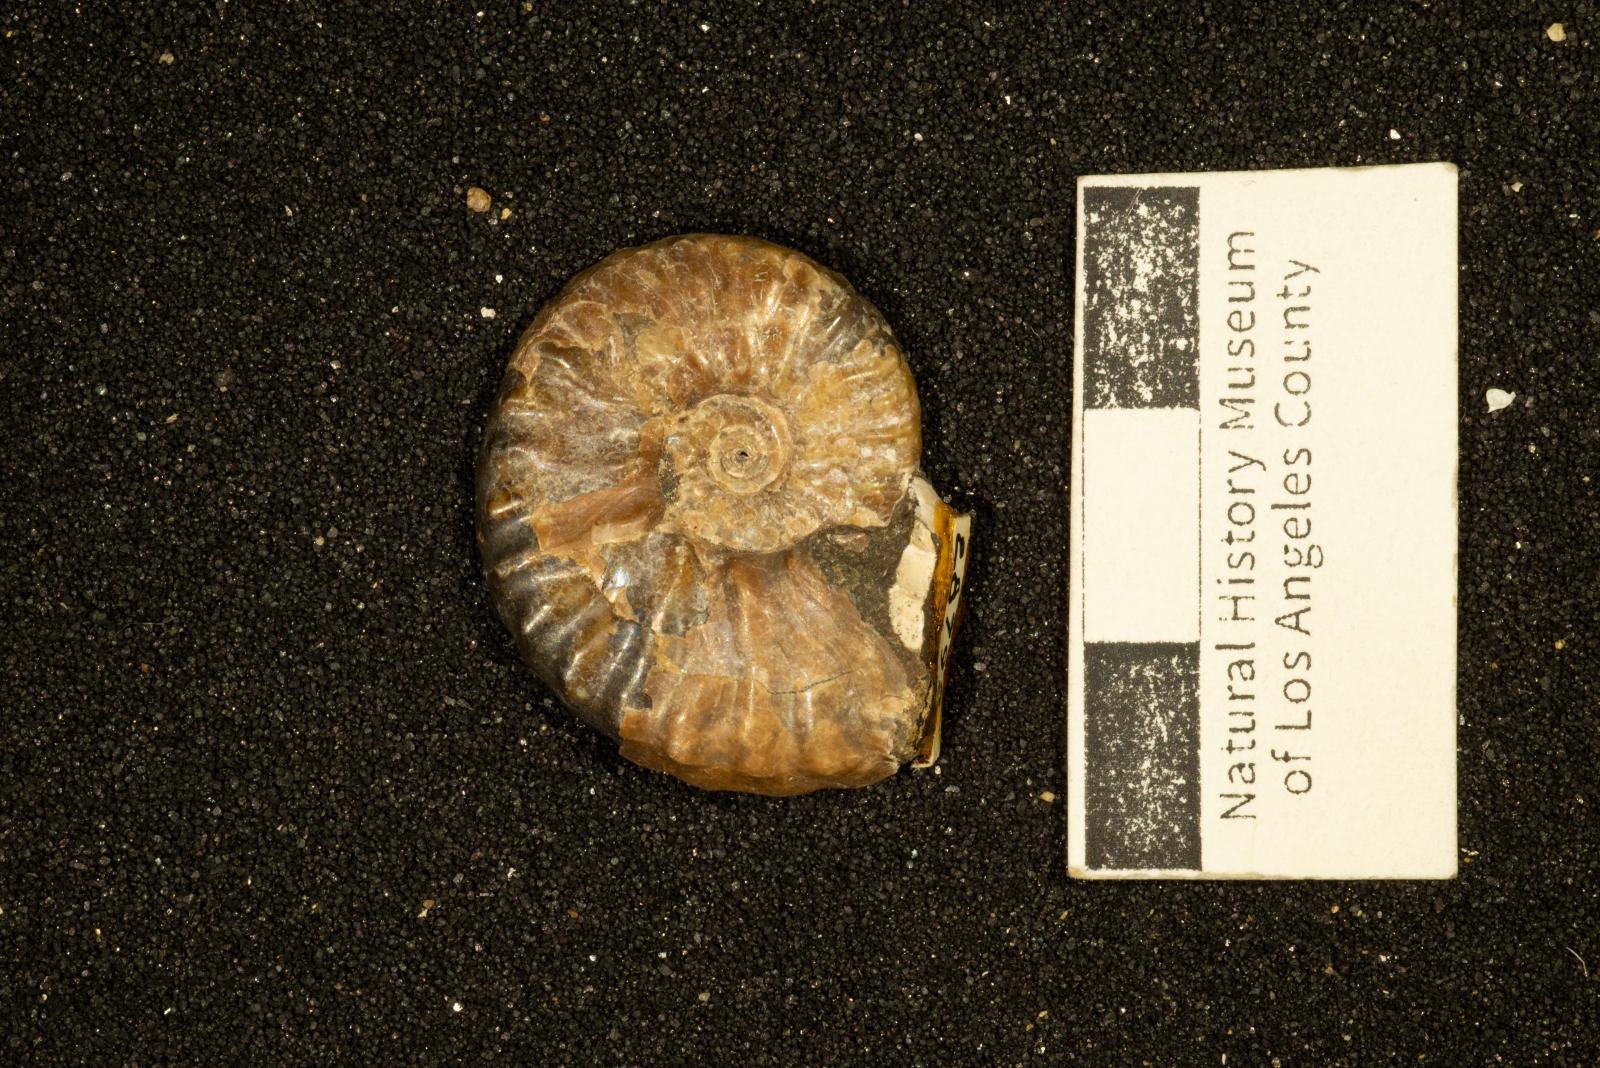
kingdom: Animalia
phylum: Mollusca
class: Cephalopoda
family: Collignoniceratidae
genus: Subprionocyclus
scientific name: Subprionocyclus
